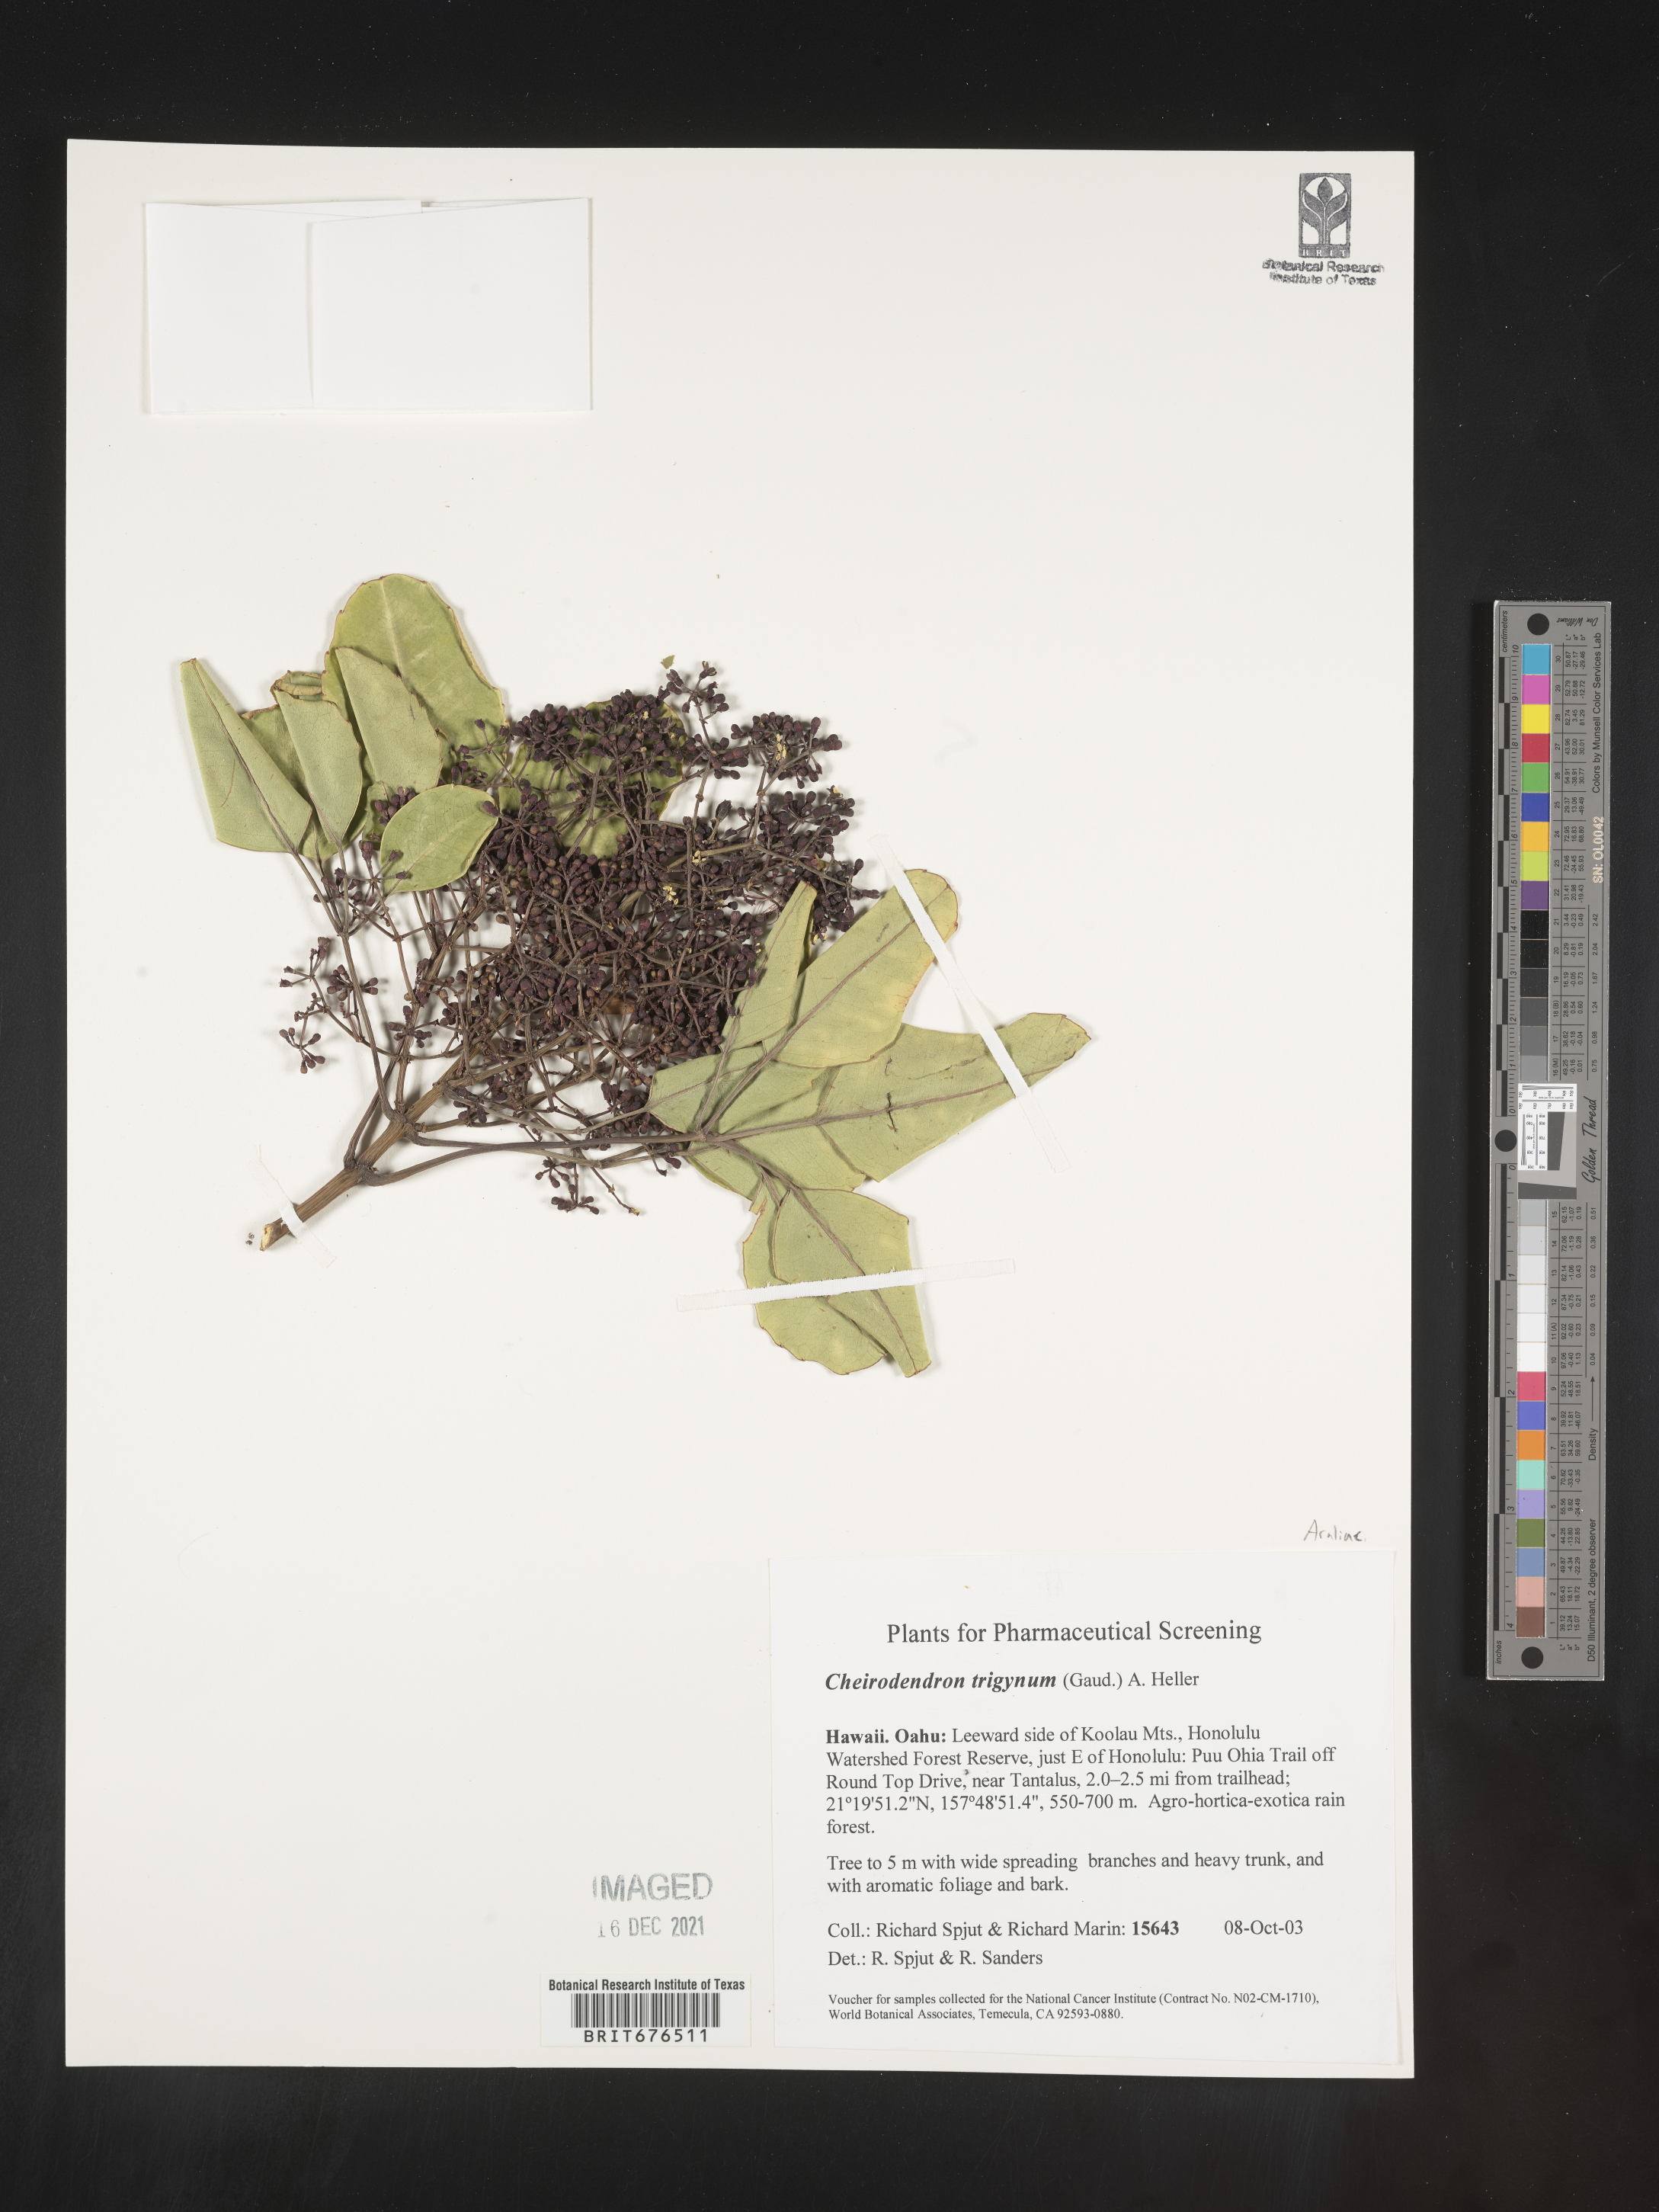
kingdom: Plantae
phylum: Tracheophyta
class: Magnoliopsida
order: Apiales
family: Araliaceae
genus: Cheirodendron
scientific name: Cheirodendron trigynum
